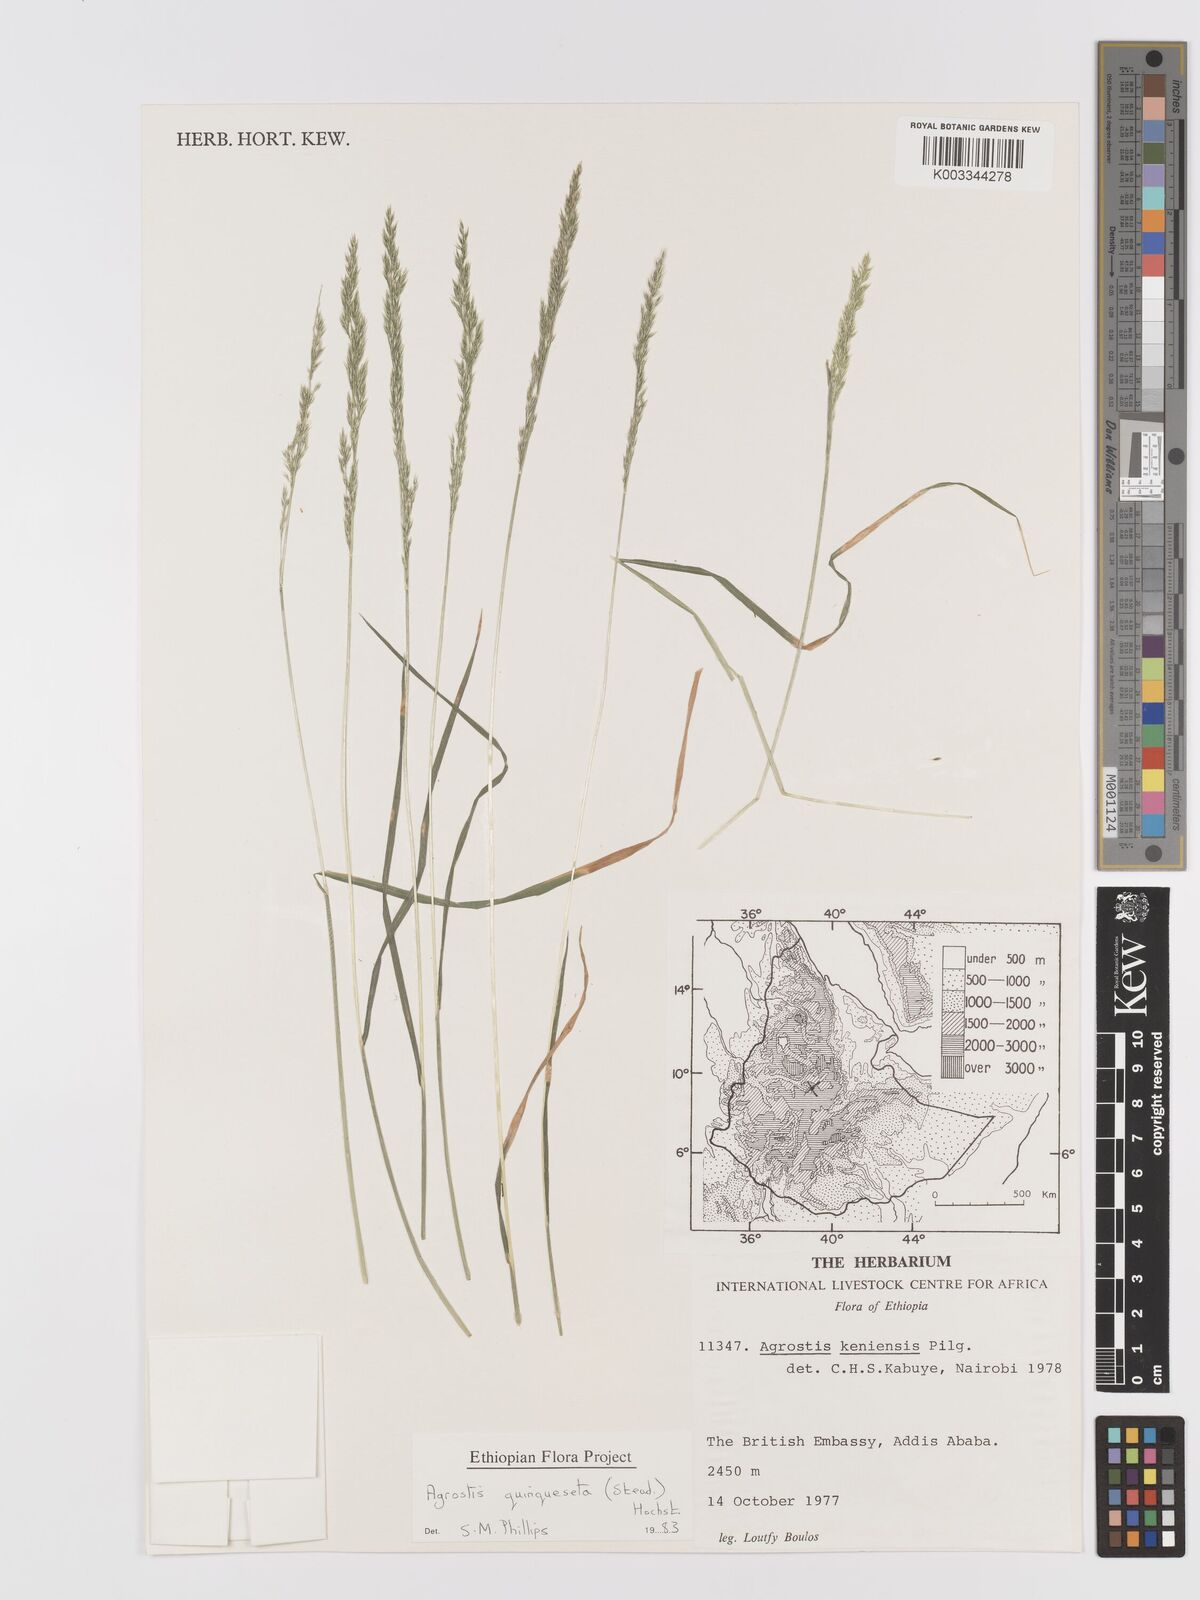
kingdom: Plantae
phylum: Tracheophyta
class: Liliopsida
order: Poales
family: Poaceae
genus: Agrostis
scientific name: Agrostis quinqueseta
